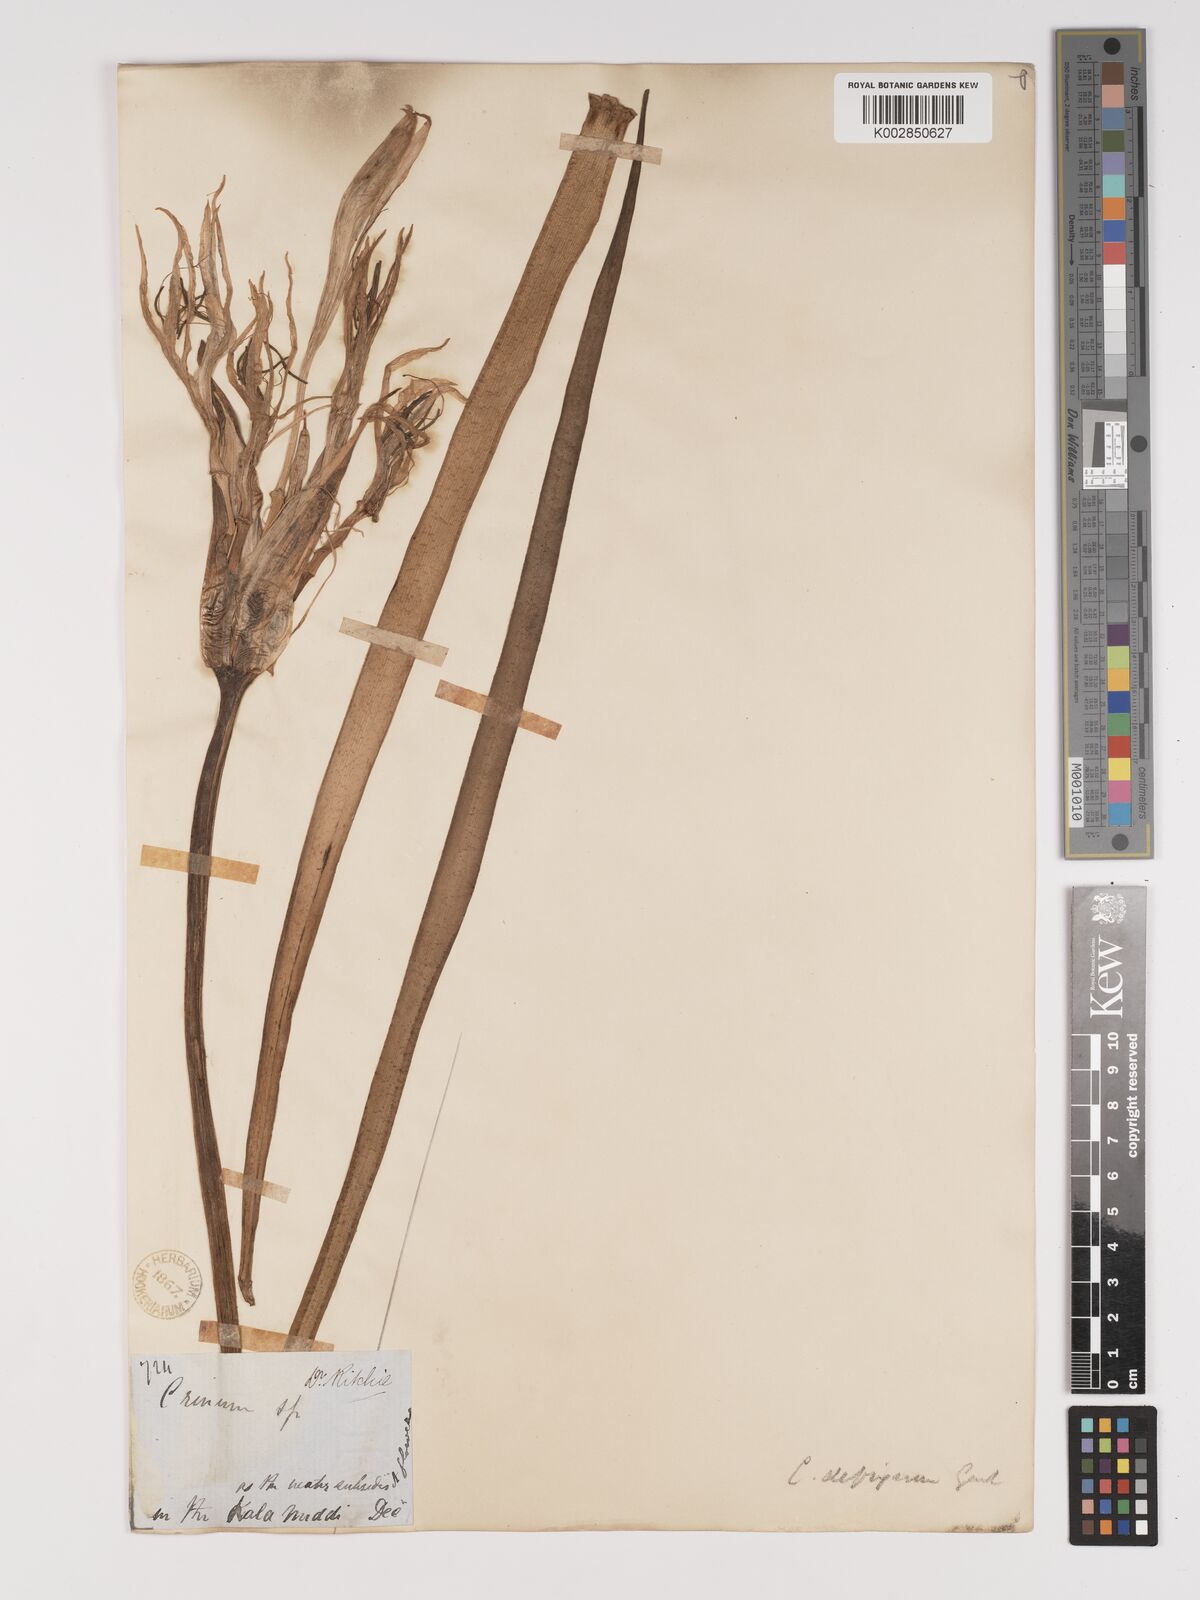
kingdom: Plantae
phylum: Tracheophyta
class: Liliopsida
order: Asparagales
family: Amaryllidaceae
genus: Crinum
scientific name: Crinum defixum
